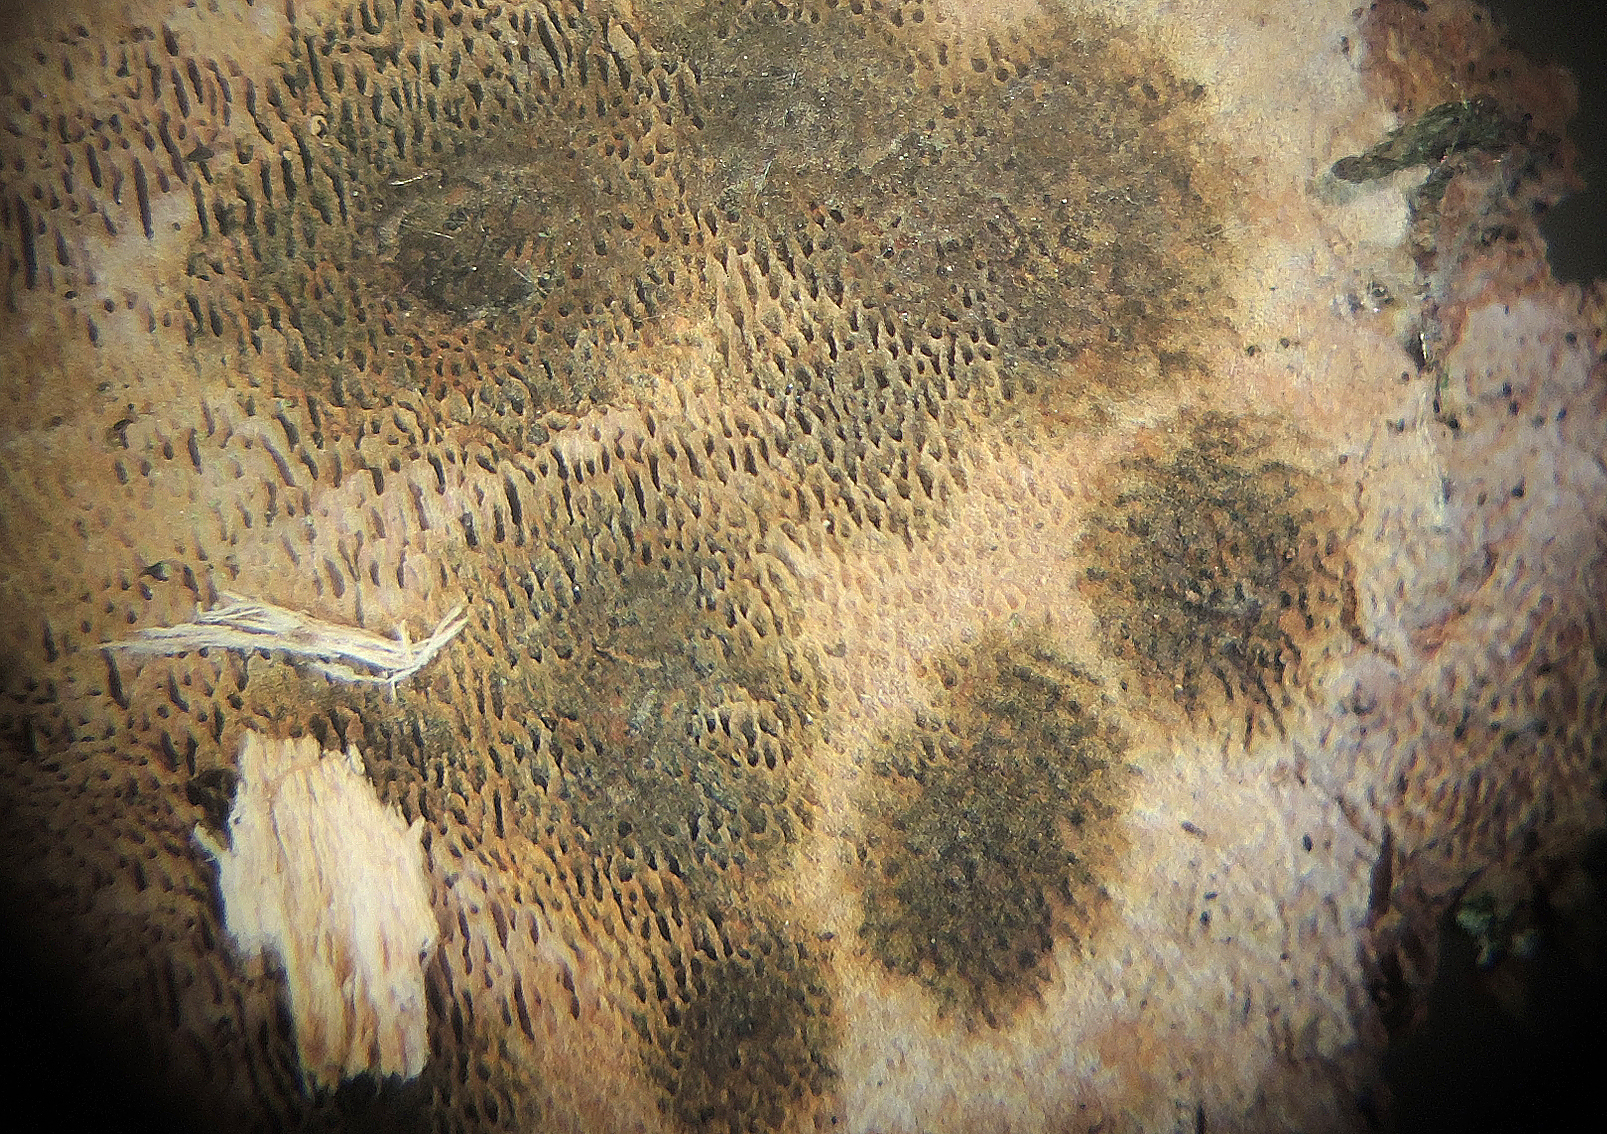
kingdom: Fungi
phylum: Ascomycota
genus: Porophilomyces
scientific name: Porophilomyces poricola
